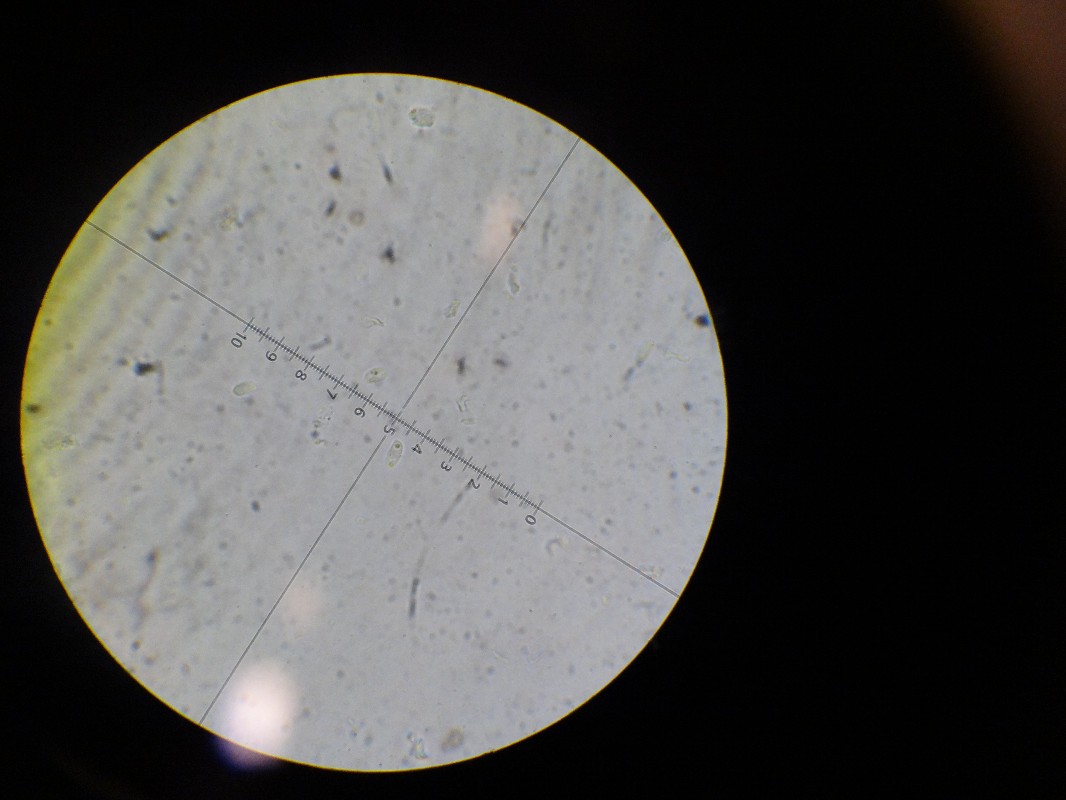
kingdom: Fungi
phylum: Basidiomycota
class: Agaricomycetes
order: Agaricales
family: Physalacriaceae
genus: Flammulina
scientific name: Flammulina velutipes
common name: gul fløjlsfod
